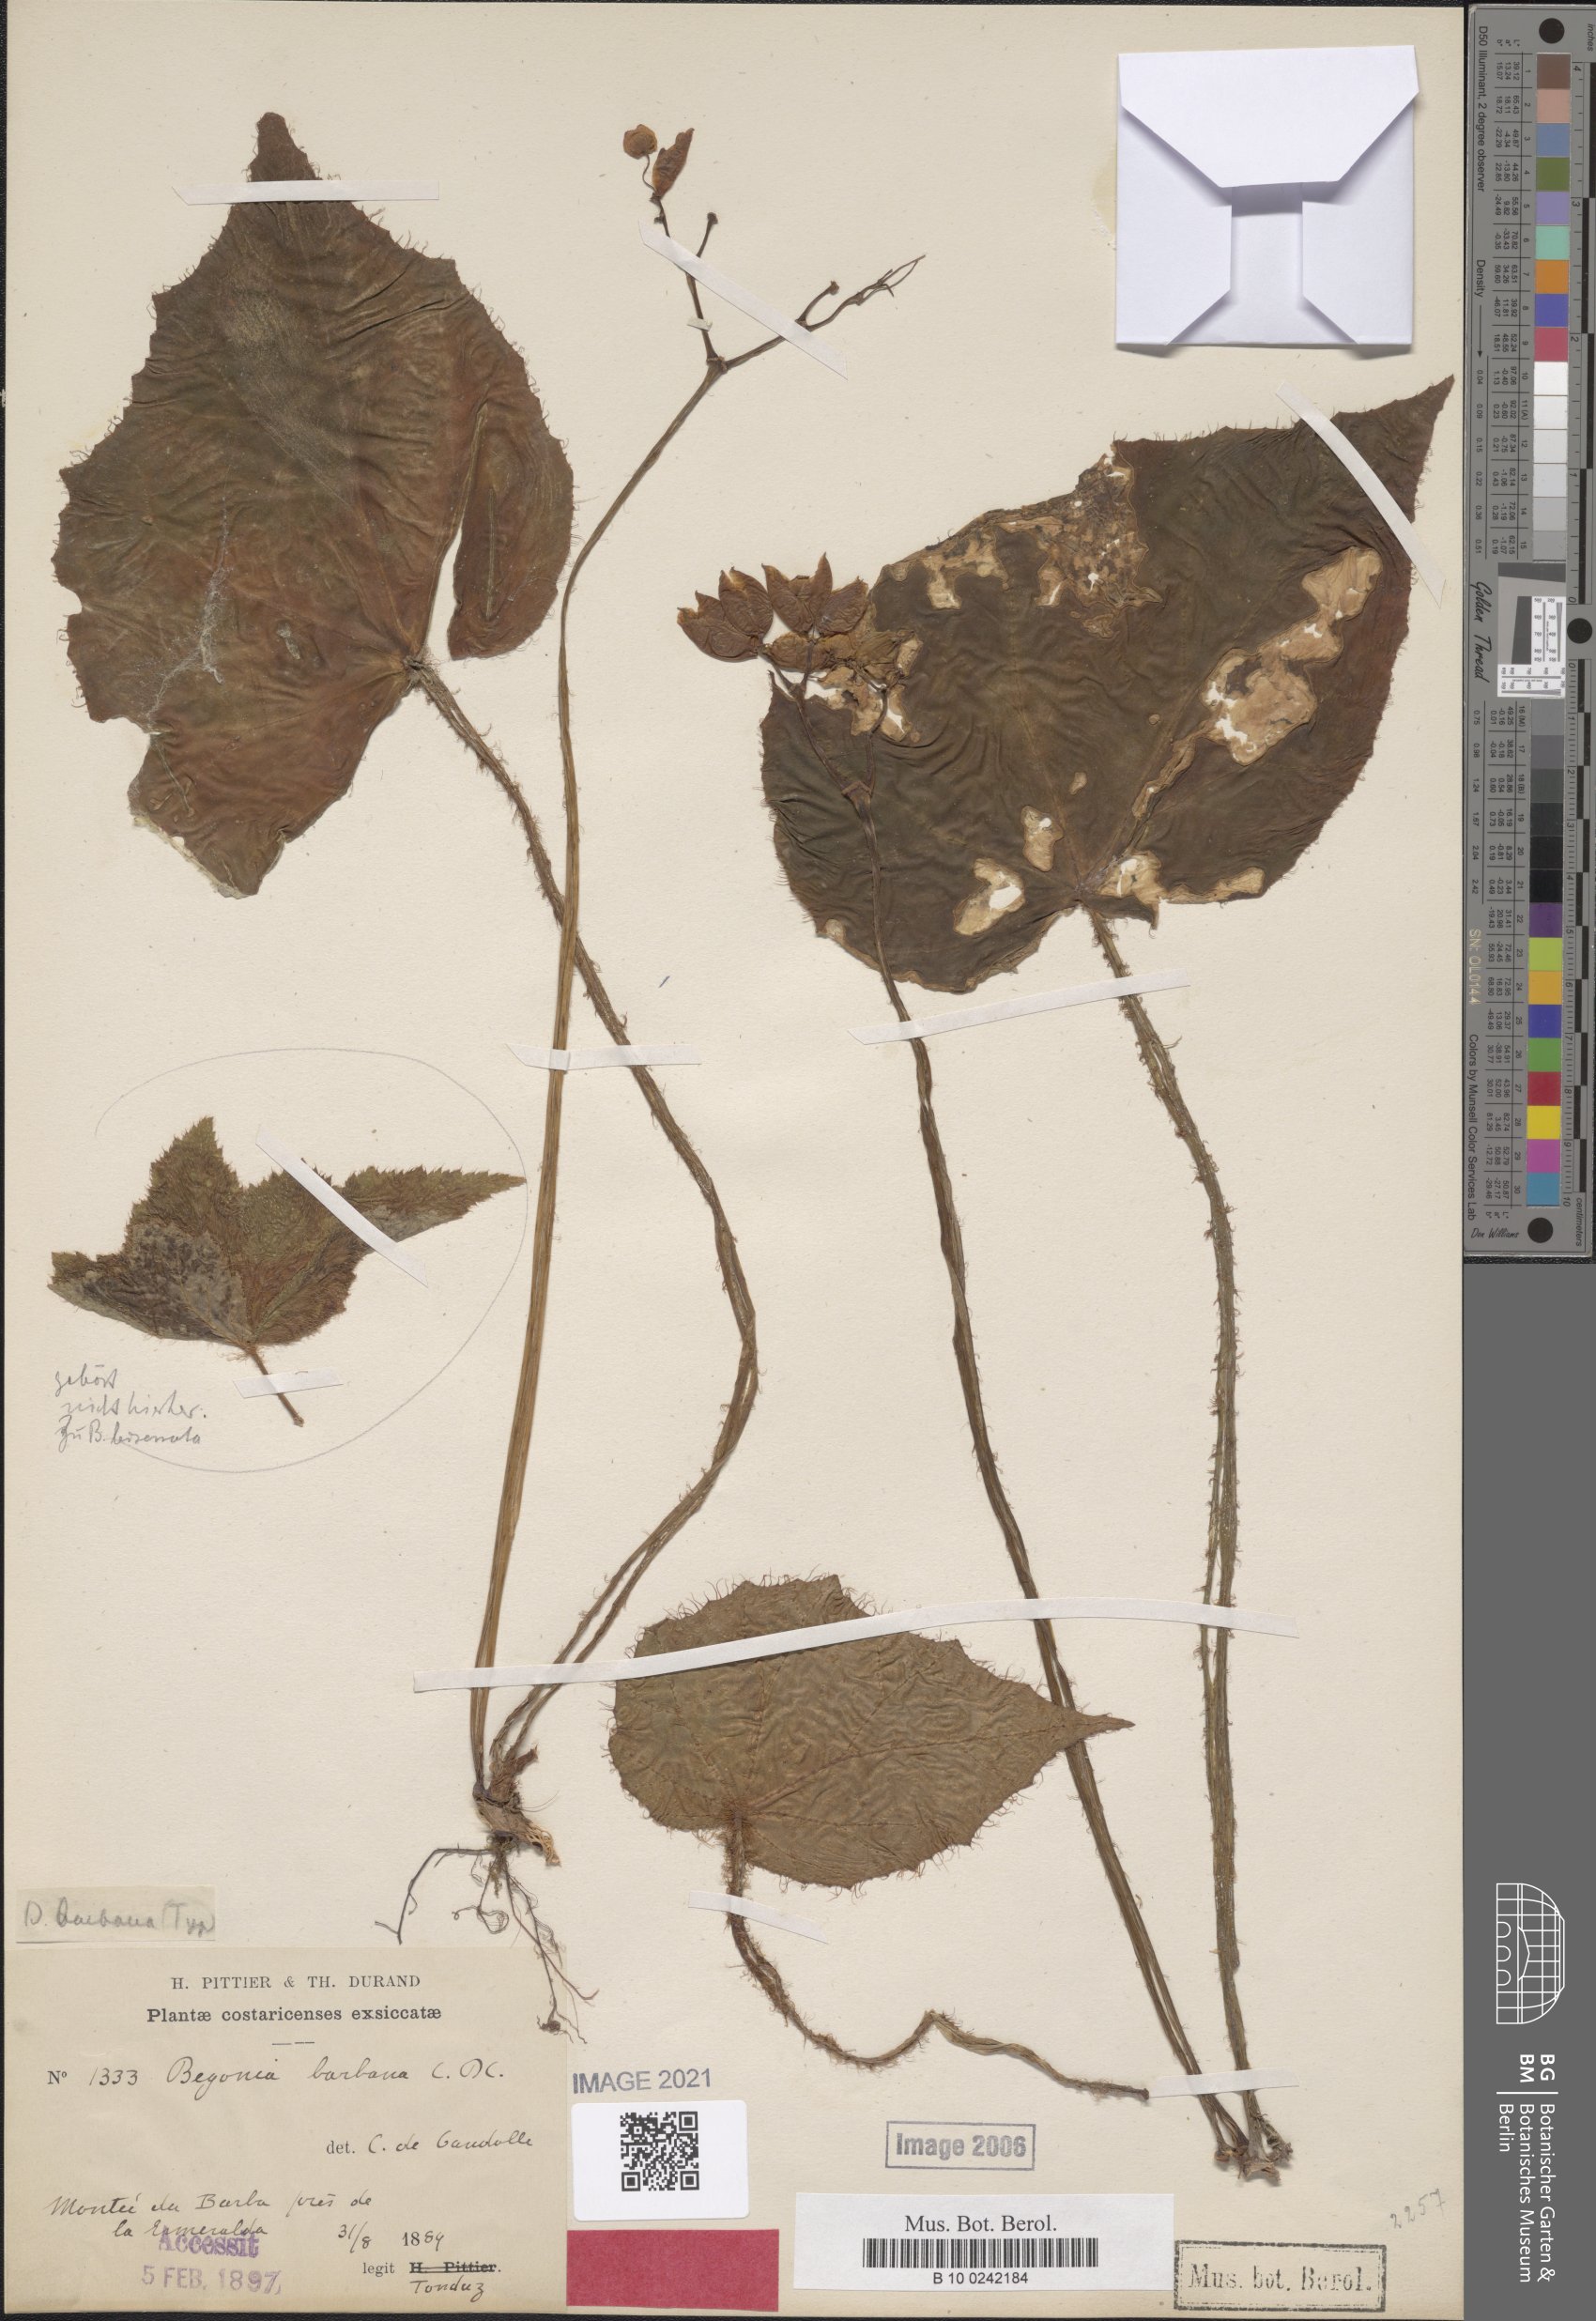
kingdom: Plantae
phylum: Tracheophyta
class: Magnoliopsida
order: Cucurbitales
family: Begoniaceae
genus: Begonia
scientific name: Begonia strigillosa
